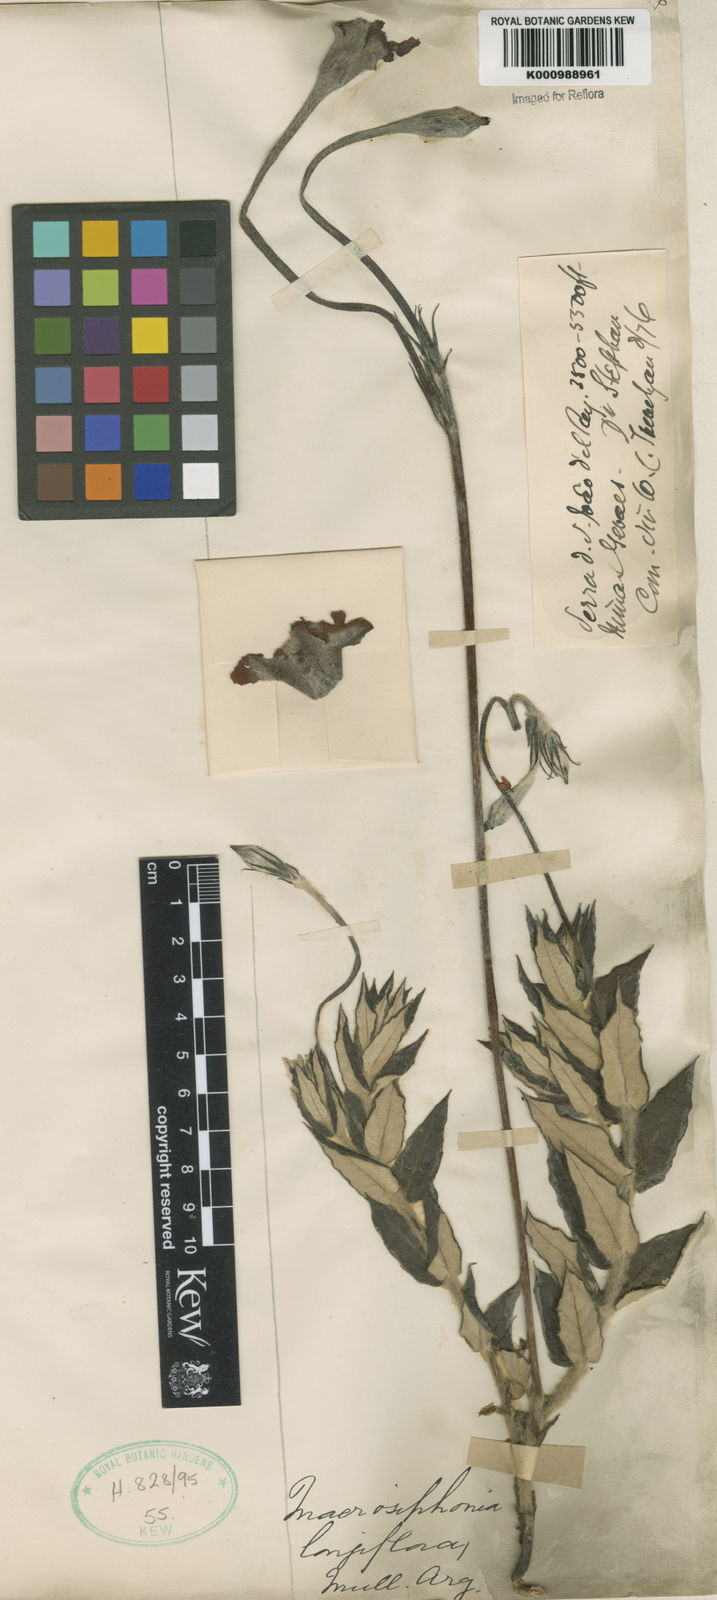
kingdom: Plantae
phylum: Tracheophyta
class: Magnoliopsida
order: Gentianales
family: Apocynaceae
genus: Mandevilla
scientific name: Mandevilla longiflora
